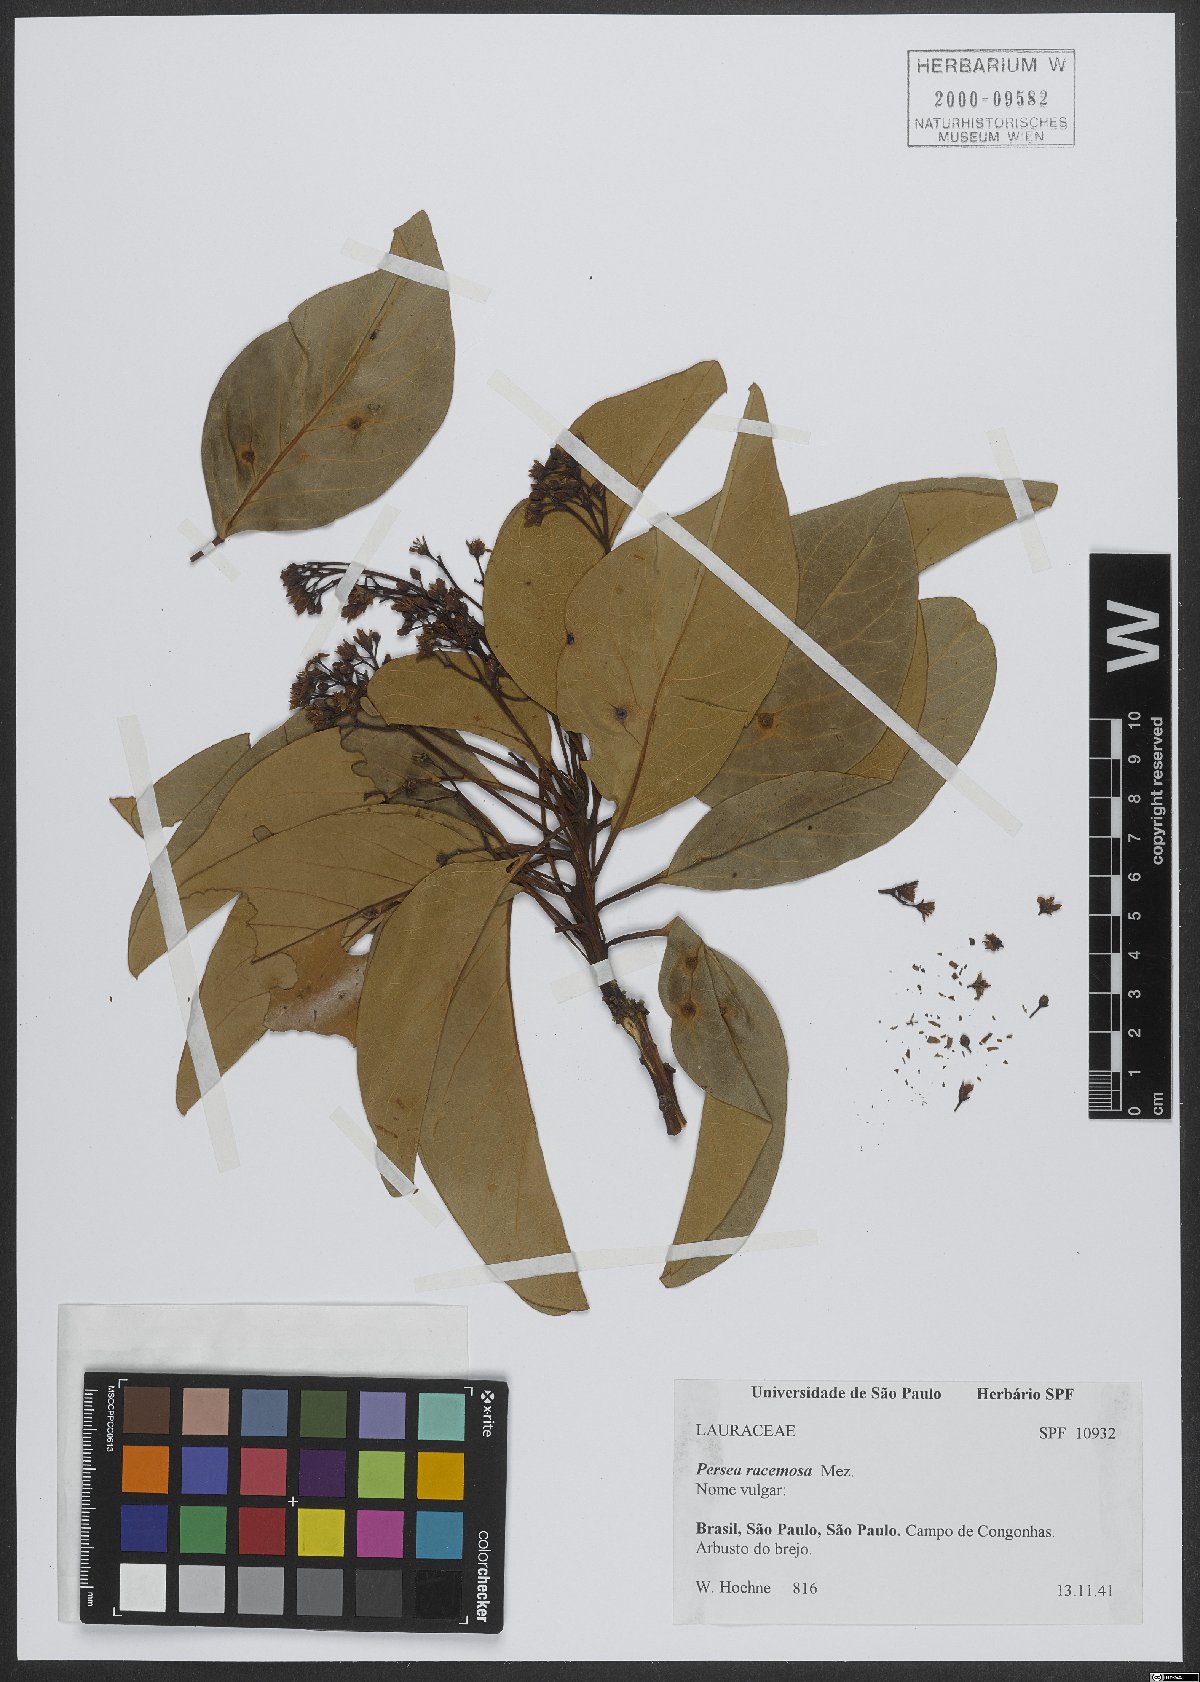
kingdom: Plantae
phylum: Tracheophyta
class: Magnoliopsida
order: Laurales
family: Lauraceae
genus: Persea
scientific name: Persea venosa
